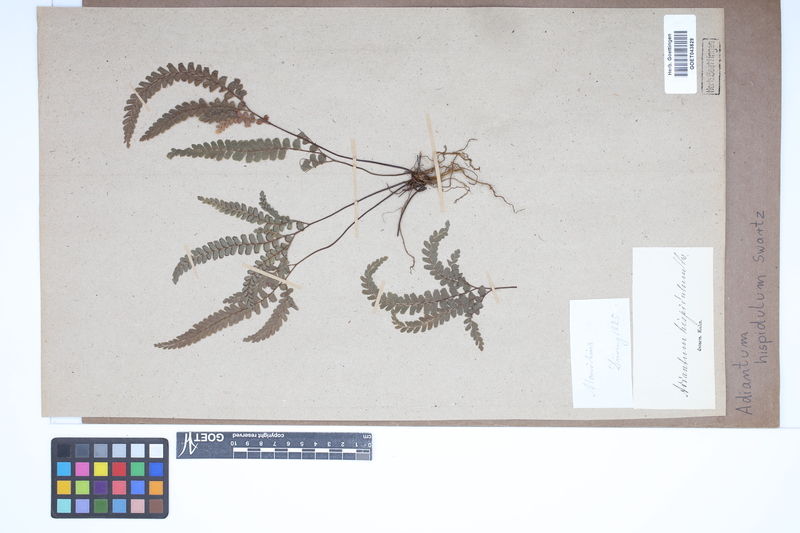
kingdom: Plantae
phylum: Tracheophyta
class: Polypodiopsida
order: Polypodiales
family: Pteridaceae
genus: Adiantum
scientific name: Adiantum hispidulum
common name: Rough maidenhair
